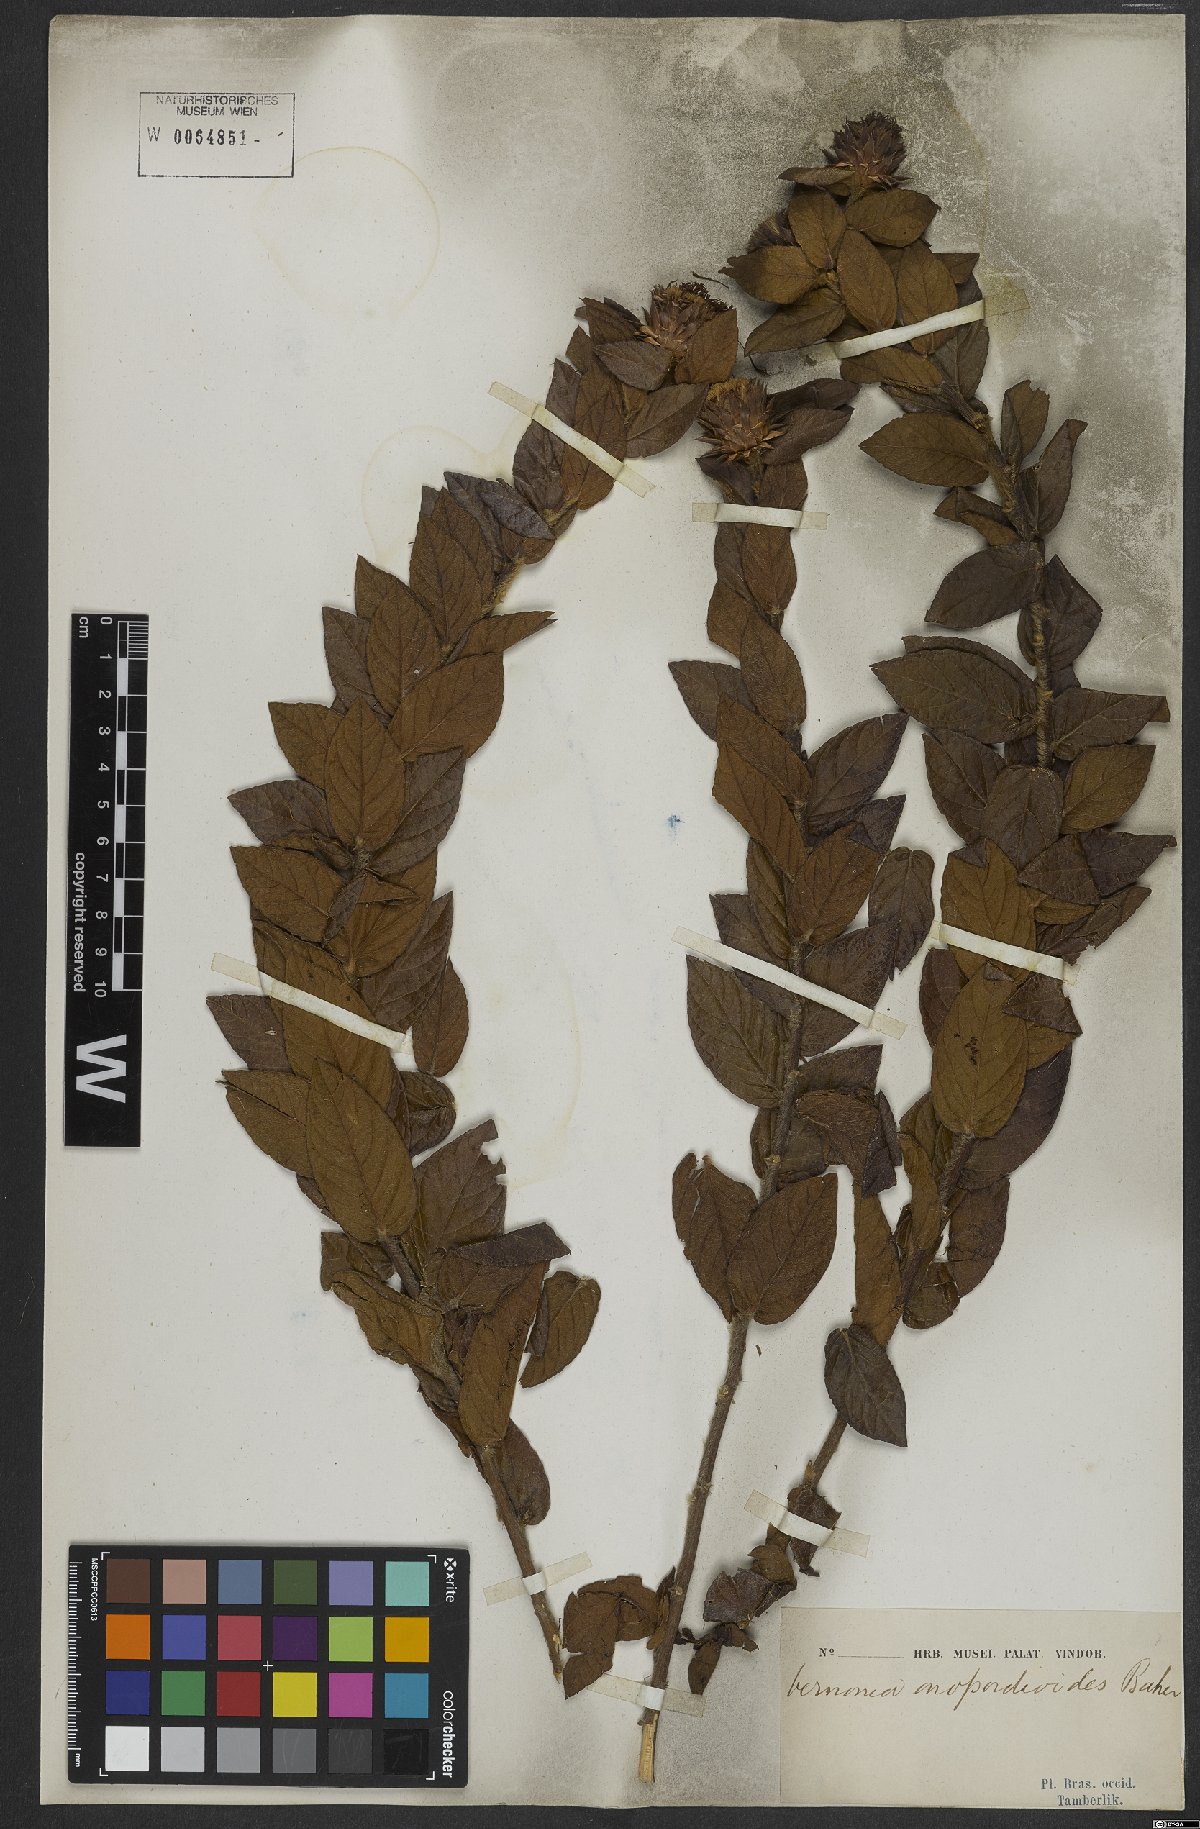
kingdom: Plantae
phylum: Tracheophyta
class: Magnoliopsida
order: Asterales
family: Asteraceae
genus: Lessingianthus
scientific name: Lessingianthus onopordioides
